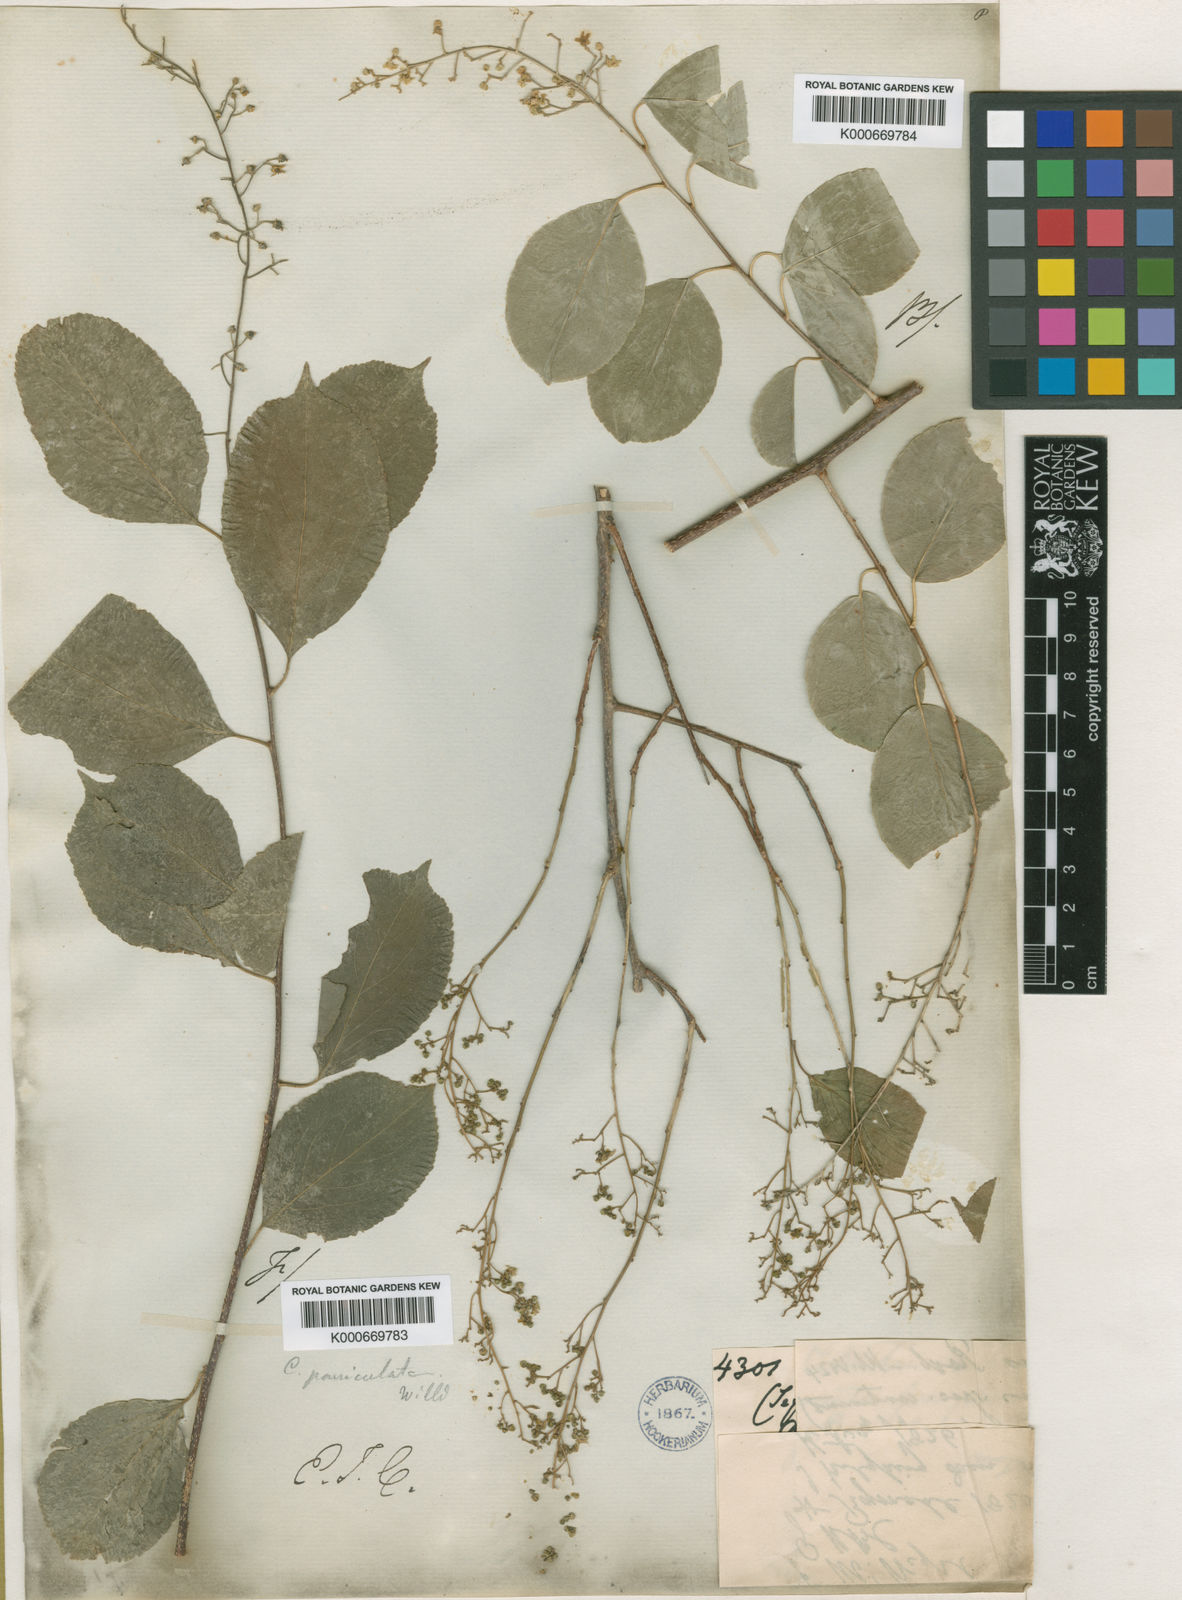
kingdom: Plantae
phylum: Tracheophyta
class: Magnoliopsida
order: Celastrales
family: Celastraceae
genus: Celastrus
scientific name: Celastrus paniculatus
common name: Oriental bittersweet; staff vine
